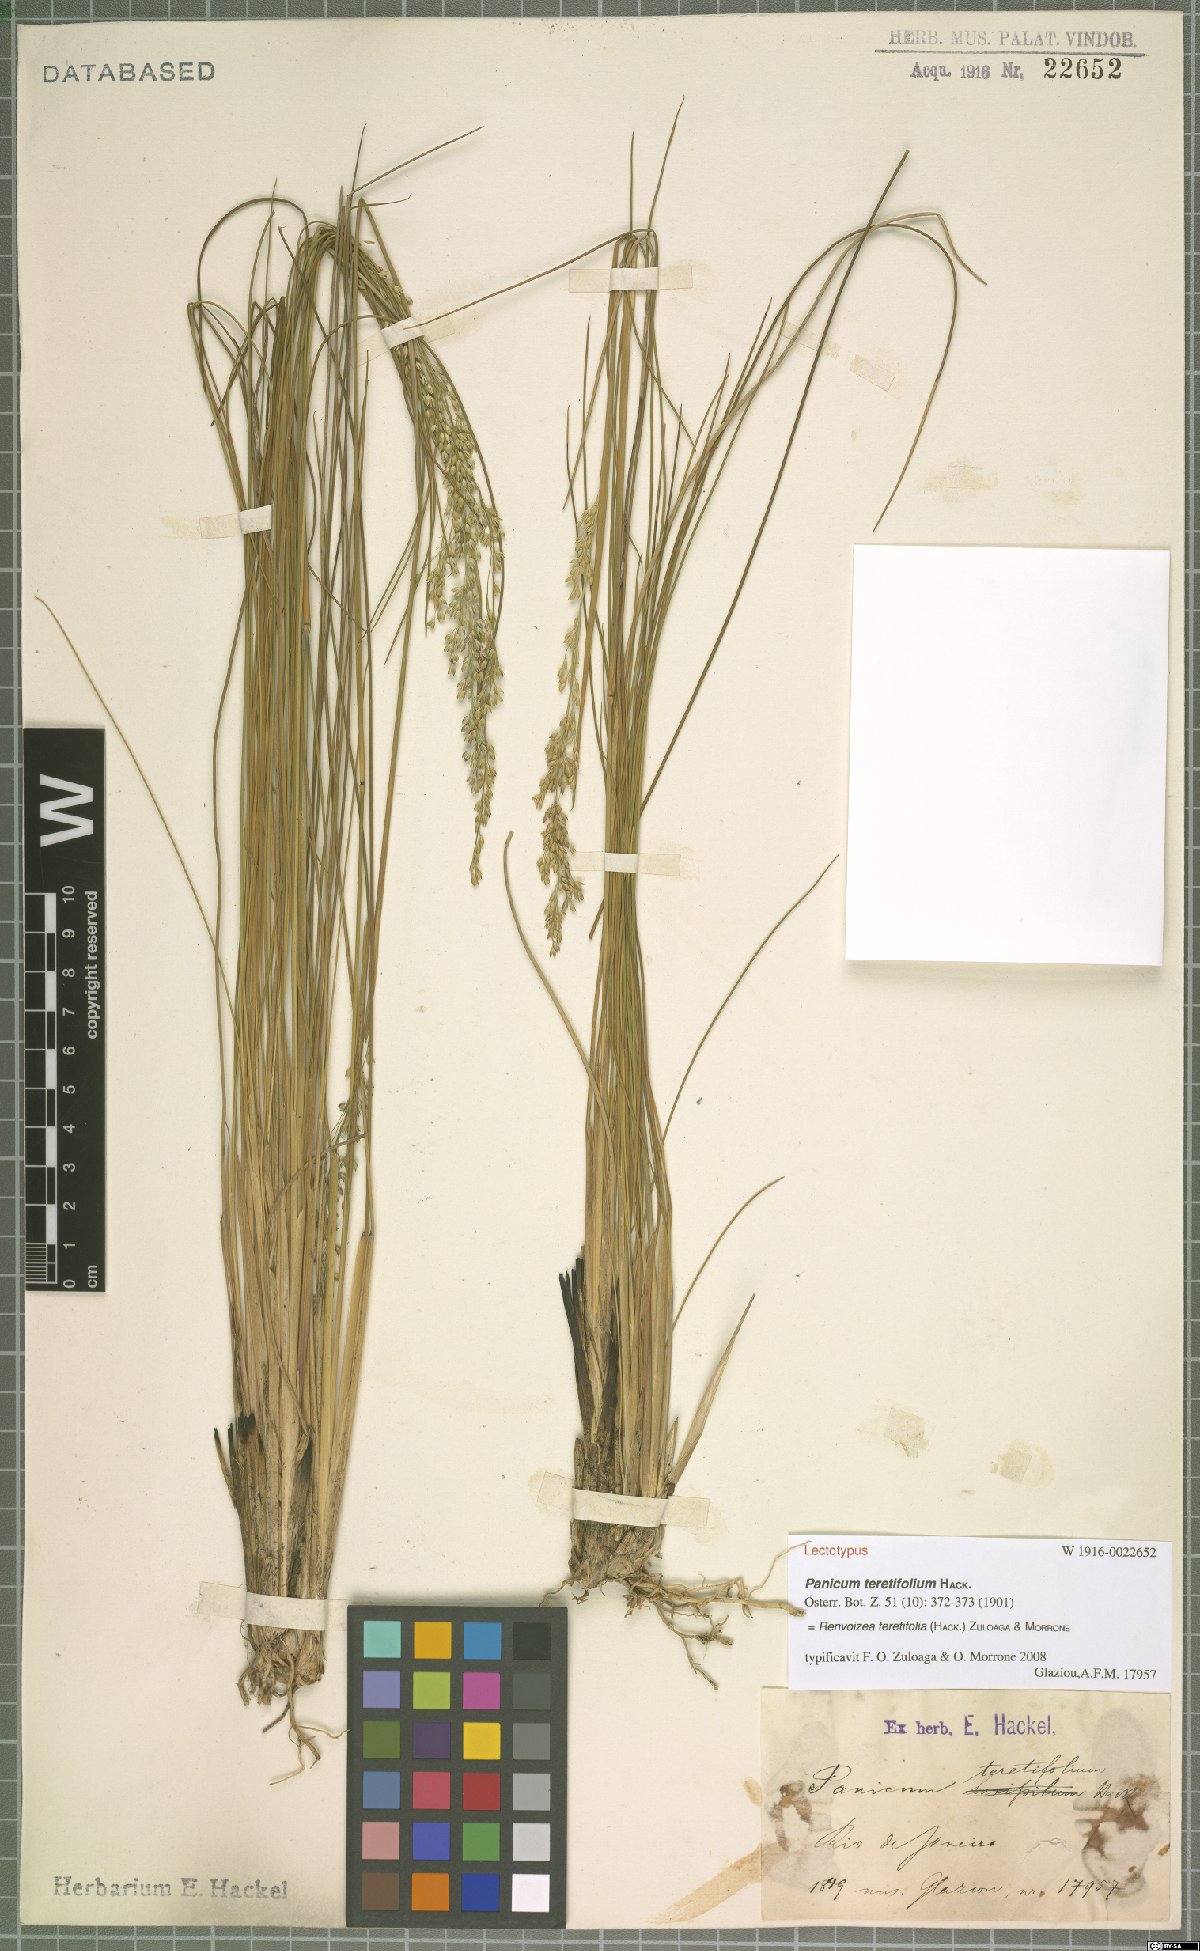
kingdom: Plantae
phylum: Tracheophyta
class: Liliopsida
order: Poales
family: Poaceae
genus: Renvoizea
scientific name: Renvoizea teretifolia
